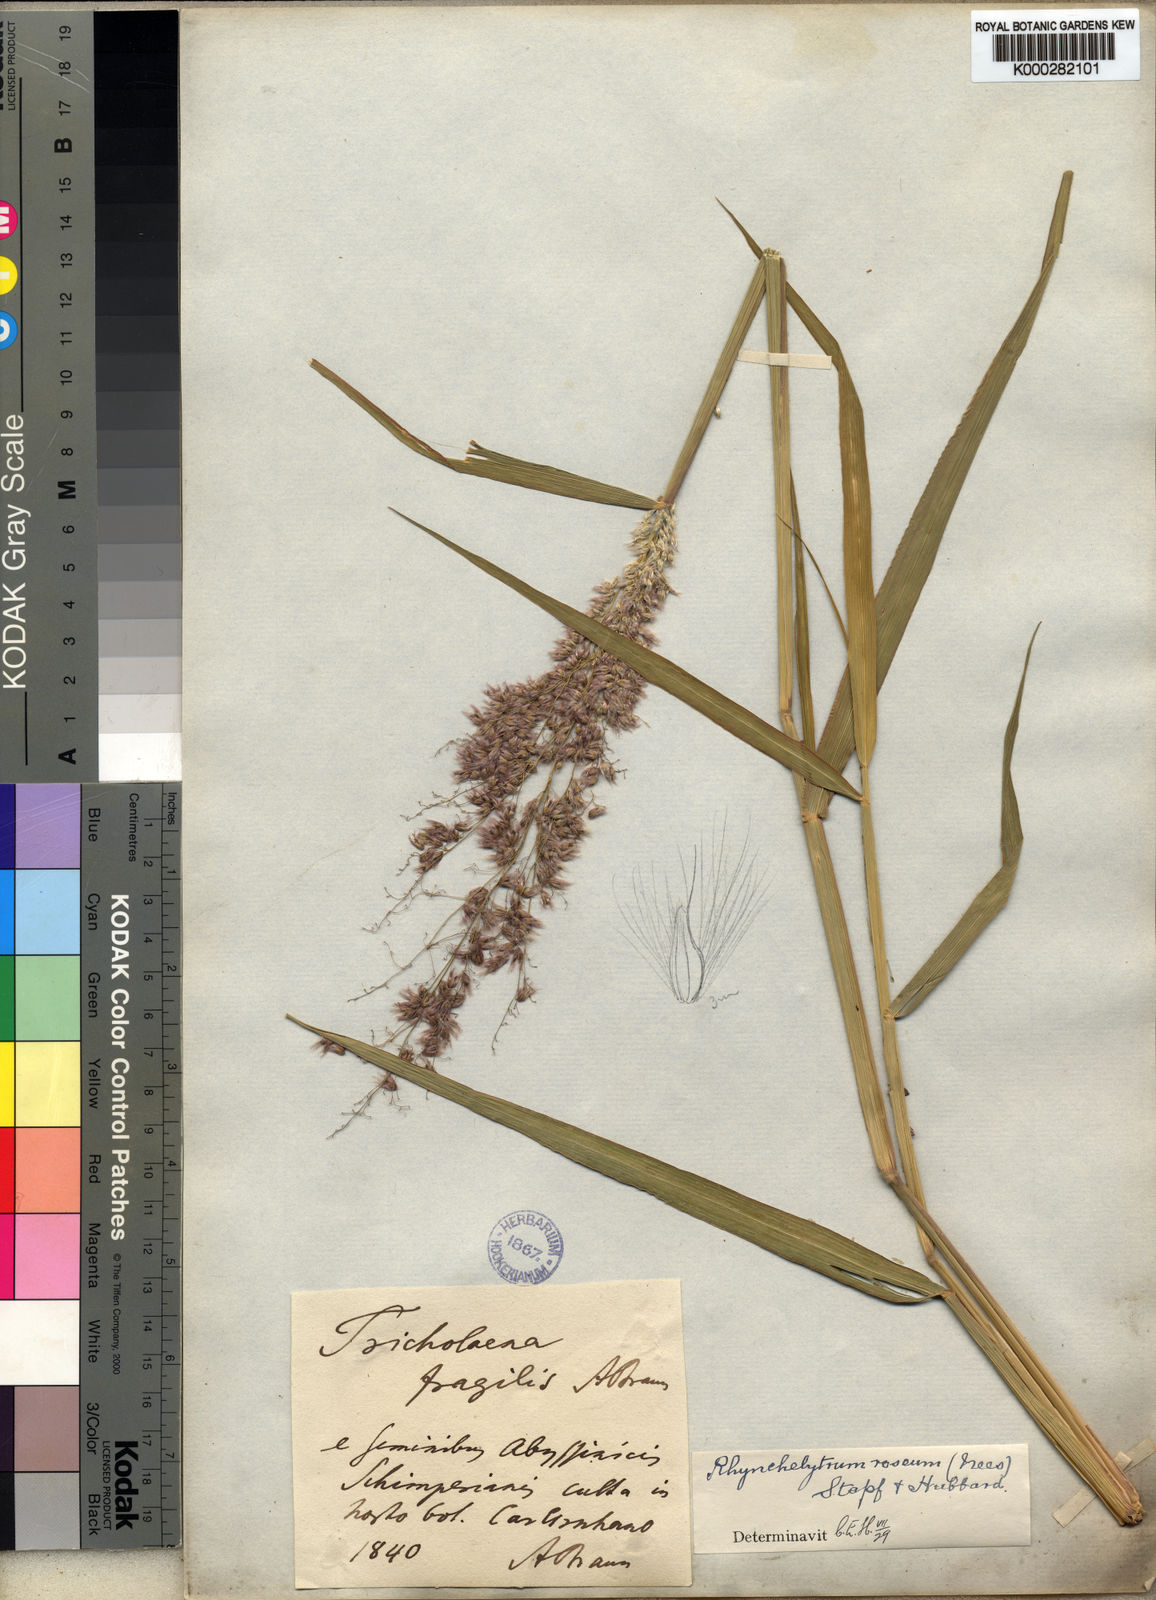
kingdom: Plantae
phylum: Tracheophyta
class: Liliopsida
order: Poales
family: Poaceae
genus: Melinis
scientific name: Melinis repens
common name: Rose natal grass
